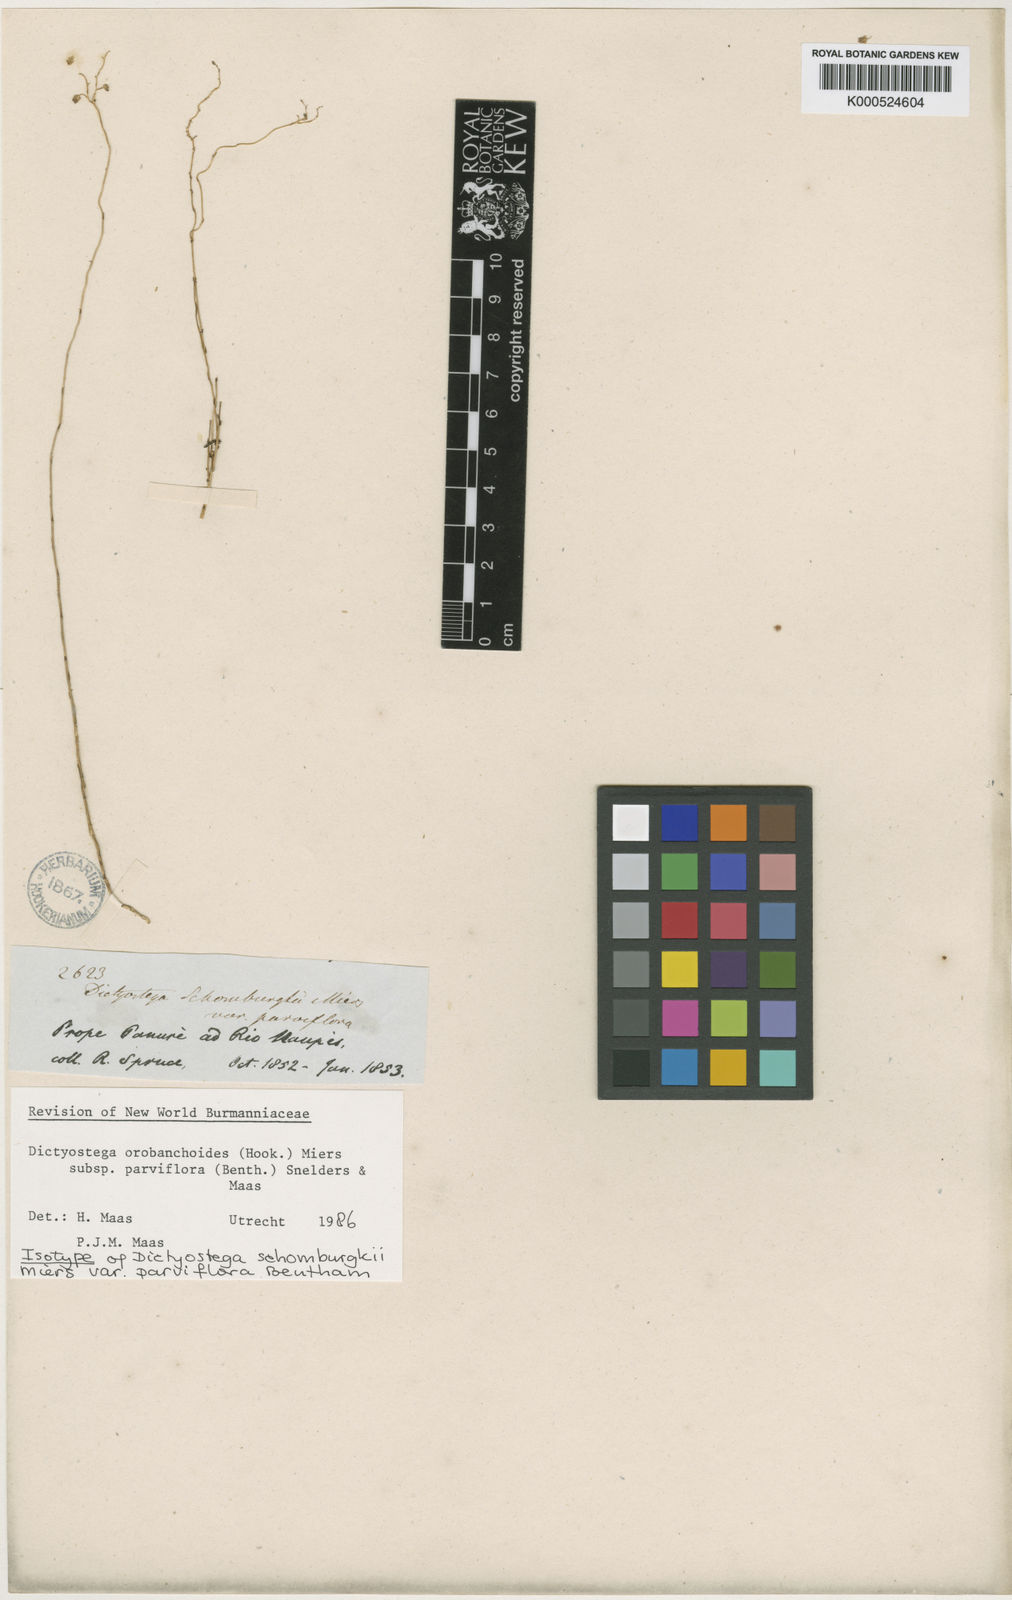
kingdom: Plantae
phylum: Tracheophyta
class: Liliopsida
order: Dioscoreales
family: Burmanniaceae
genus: Dictyostega
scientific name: Dictyostega orobanchoides
